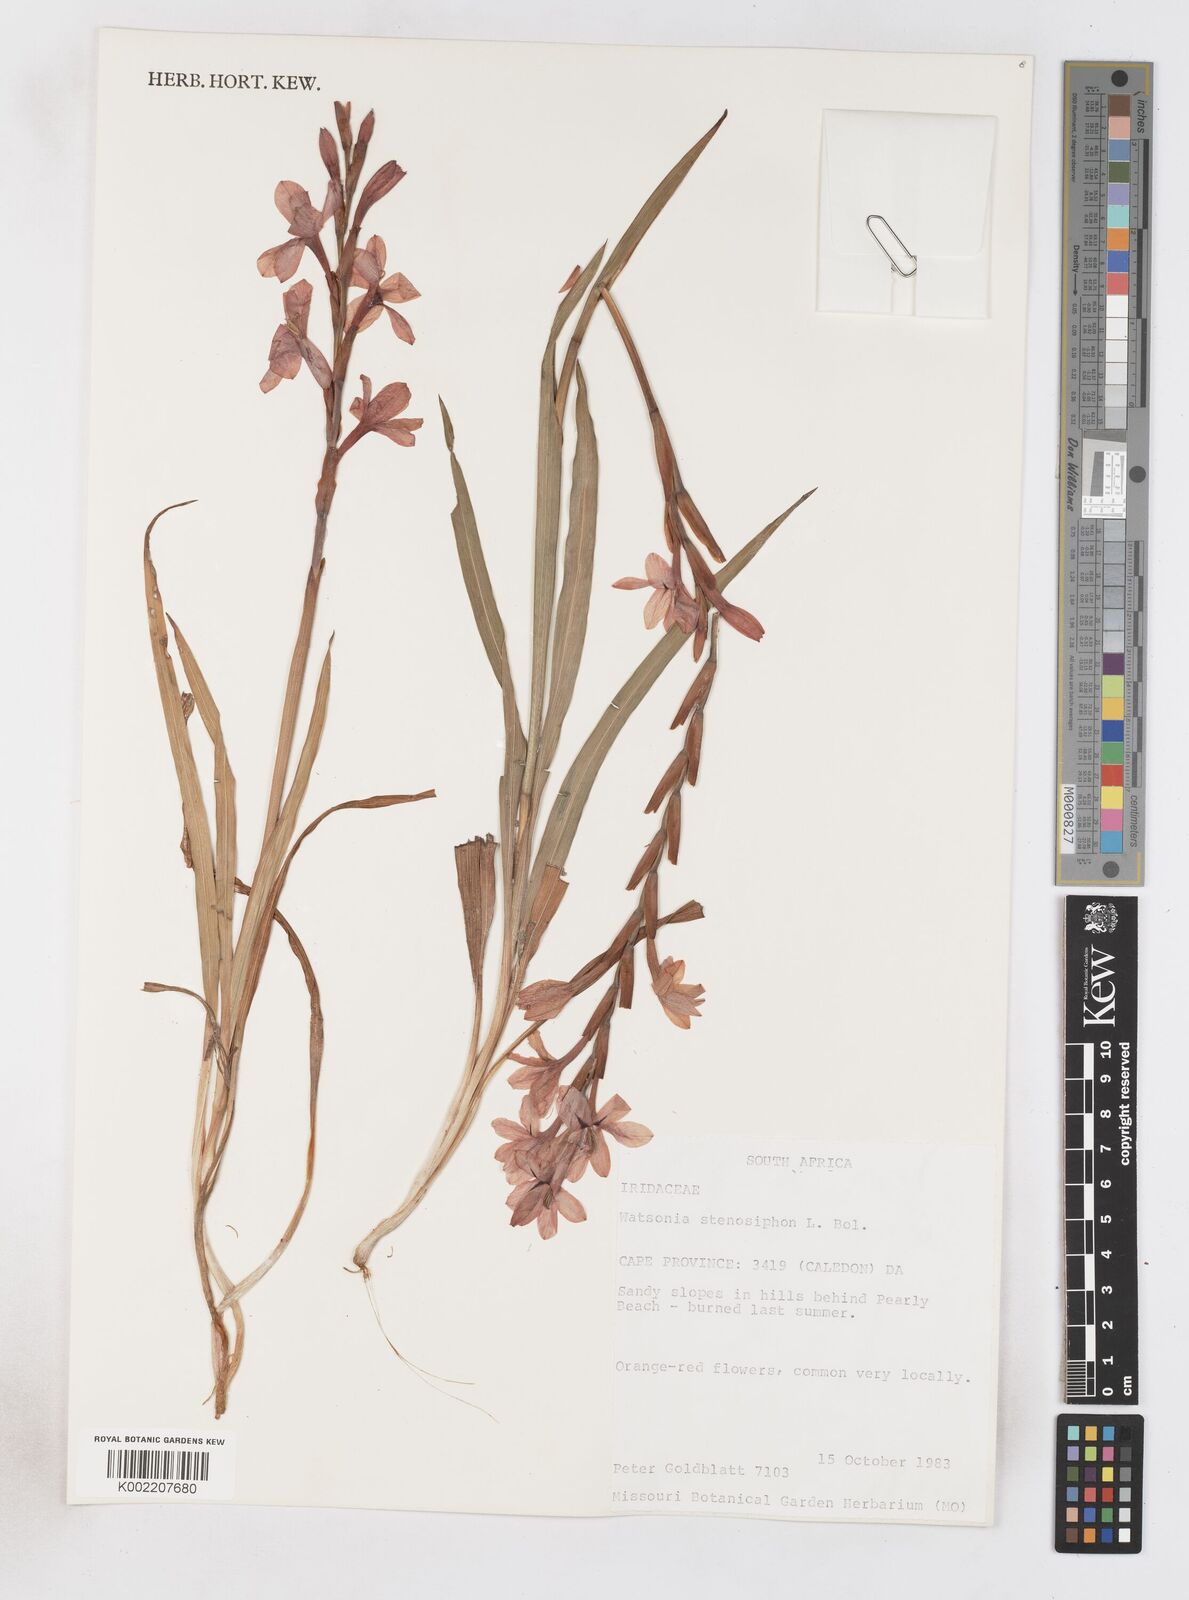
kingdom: Plantae
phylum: Tracheophyta
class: Liliopsida
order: Asparagales
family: Iridaceae
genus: Watsonia
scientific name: Watsonia stenosiphon
